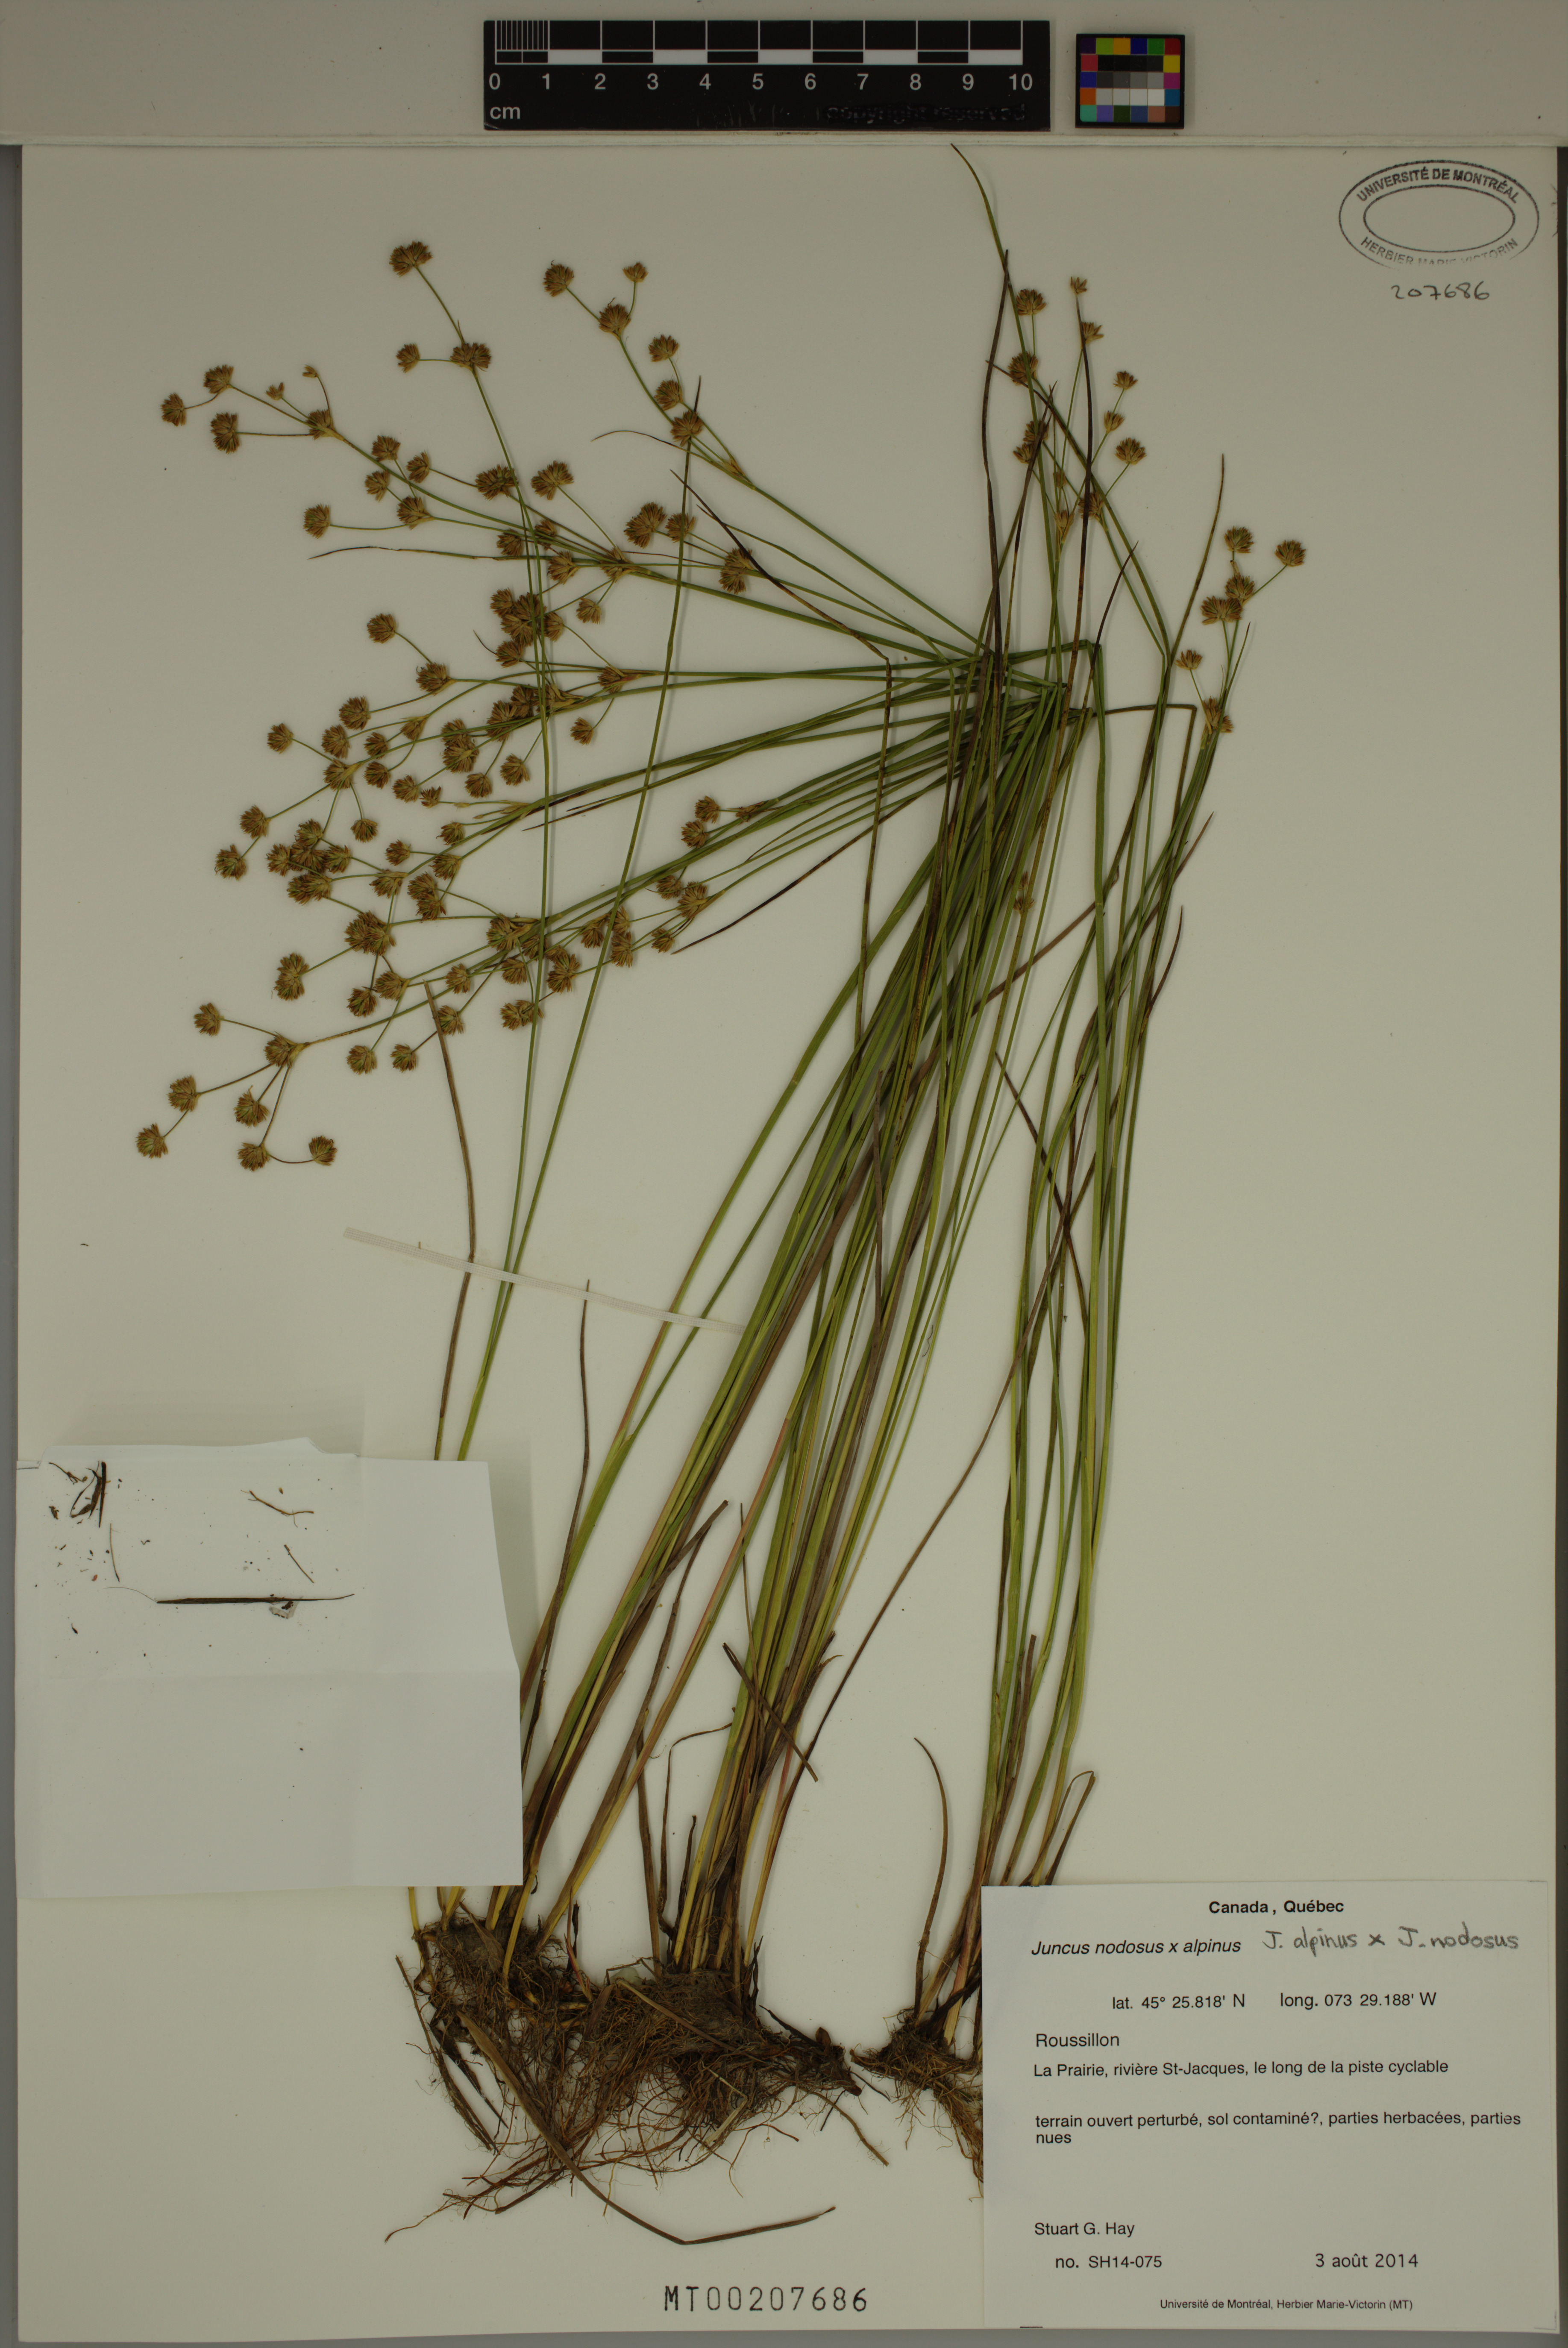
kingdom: Plantae
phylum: Tracheophyta
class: Liliopsida
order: Poales
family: Juncaceae
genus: Juncus
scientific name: Juncus nodosiformis
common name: Hybrid rush
